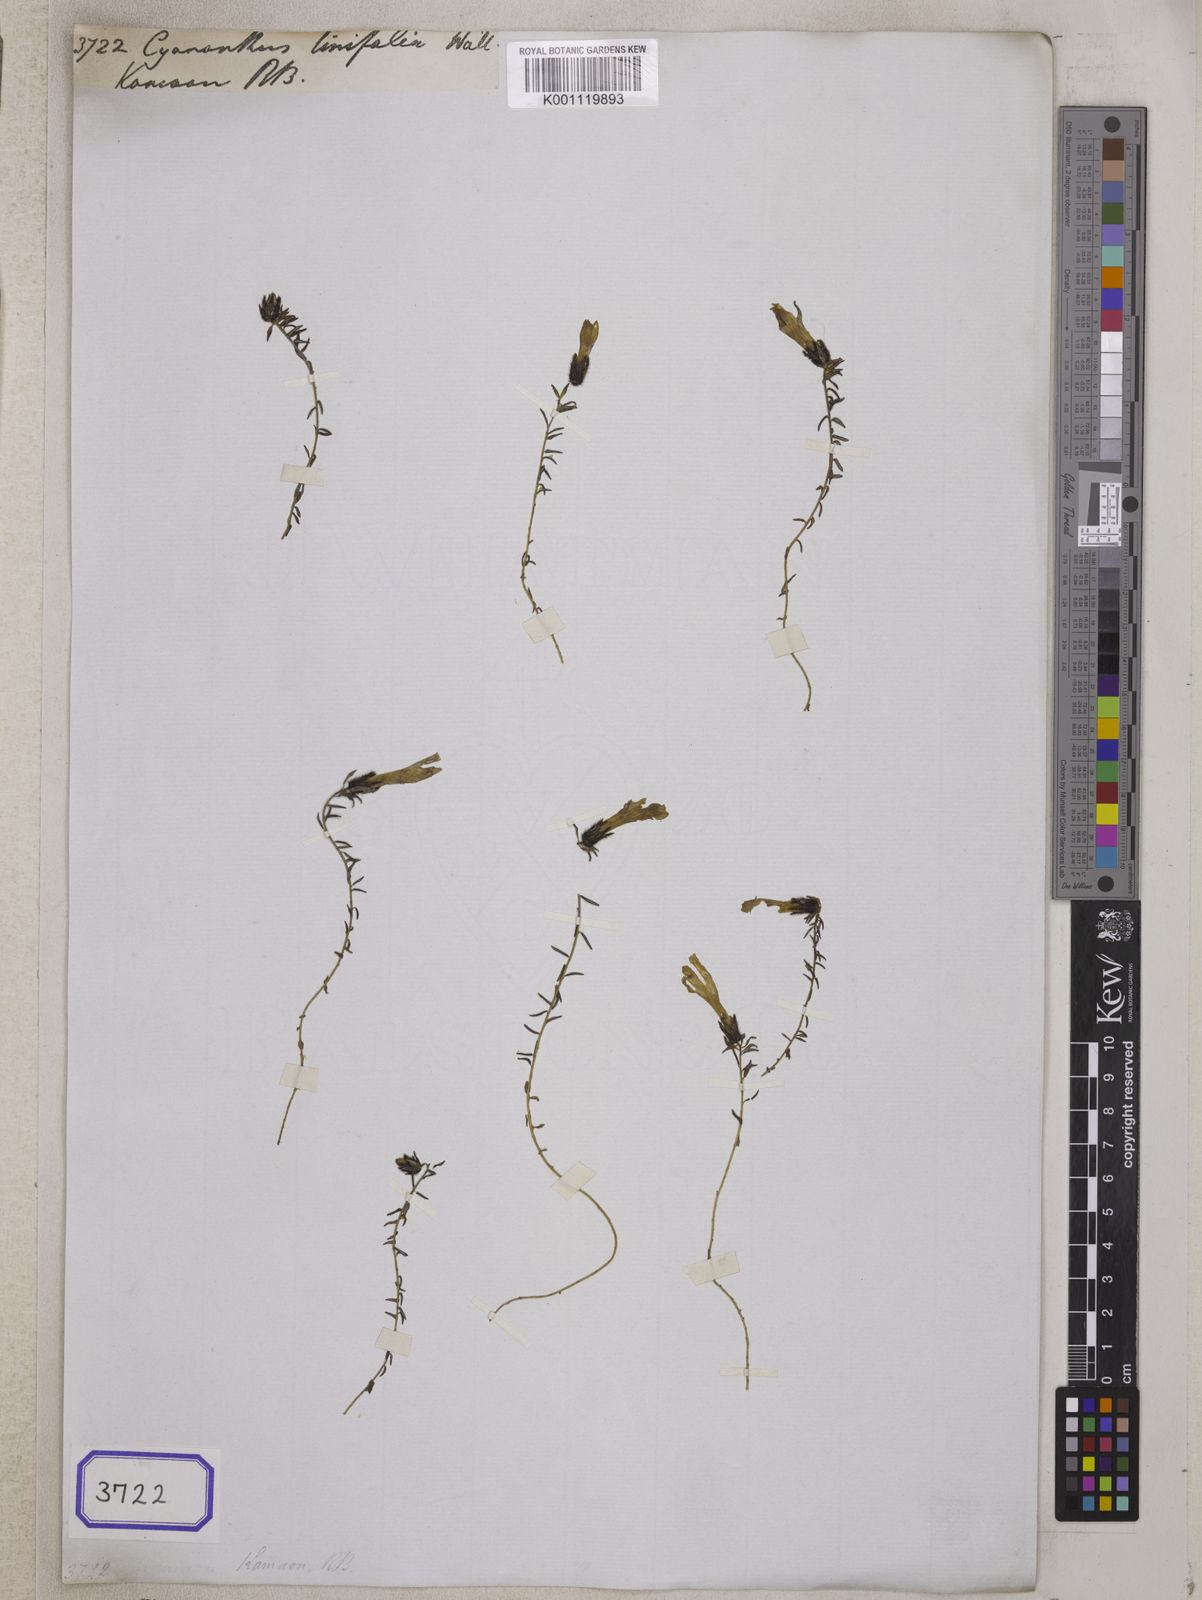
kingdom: Plantae
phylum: Tracheophyta
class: Magnoliopsida
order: Asterales
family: Campanulaceae
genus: Cyananthus
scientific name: Cyananthus
